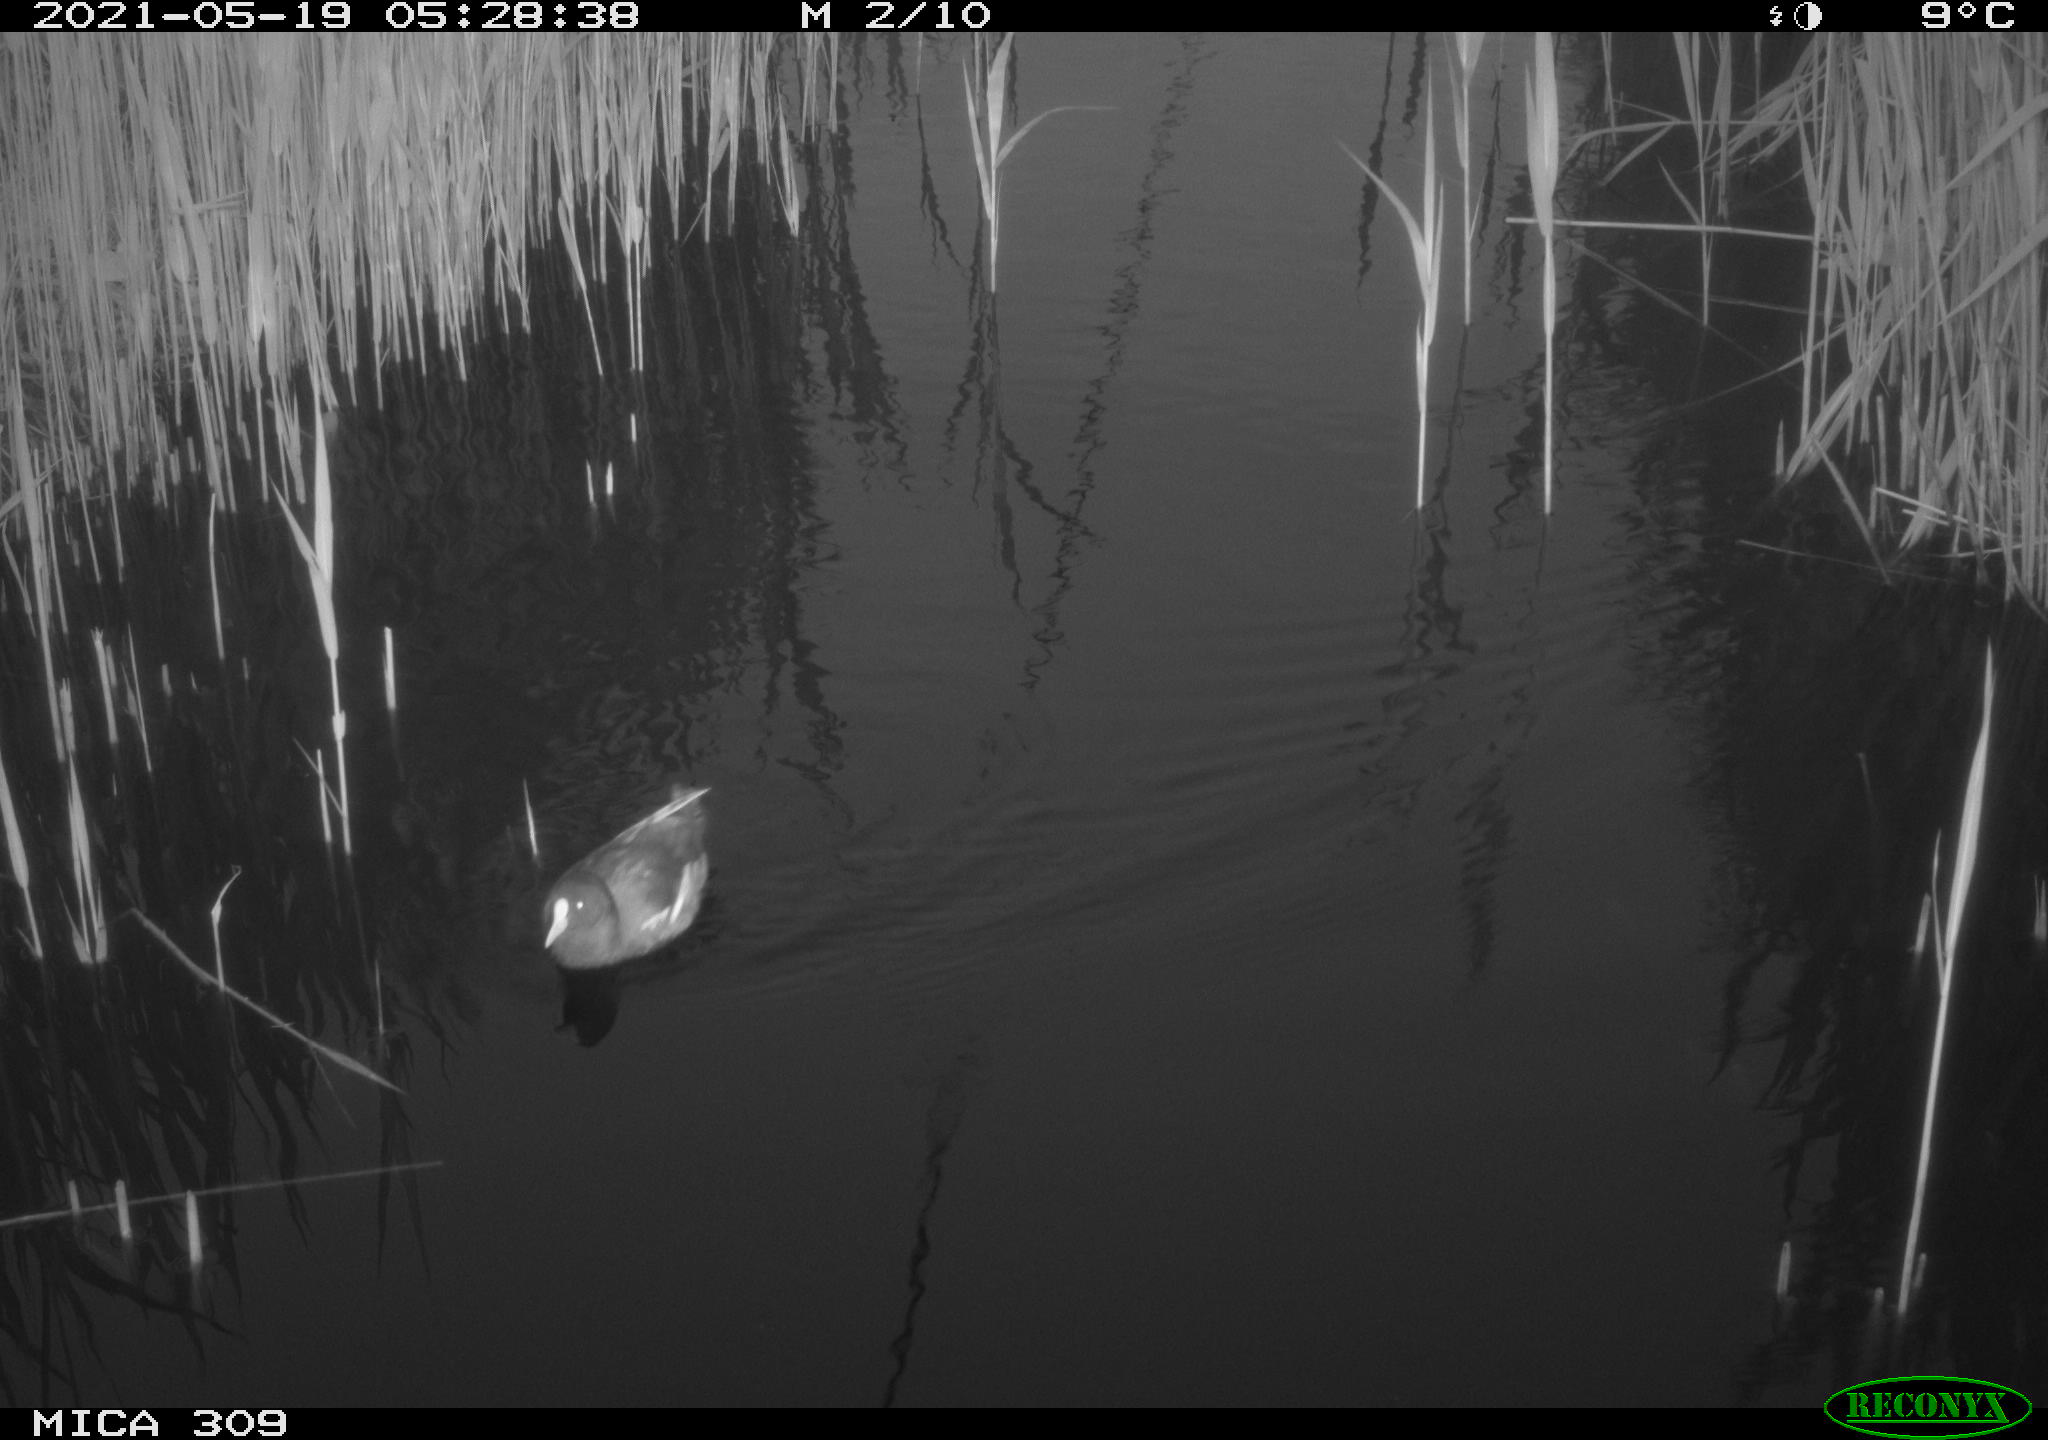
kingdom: Animalia
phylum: Chordata
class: Aves
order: Gruiformes
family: Rallidae
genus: Gallinula
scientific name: Gallinula chloropus
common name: Common moorhen
